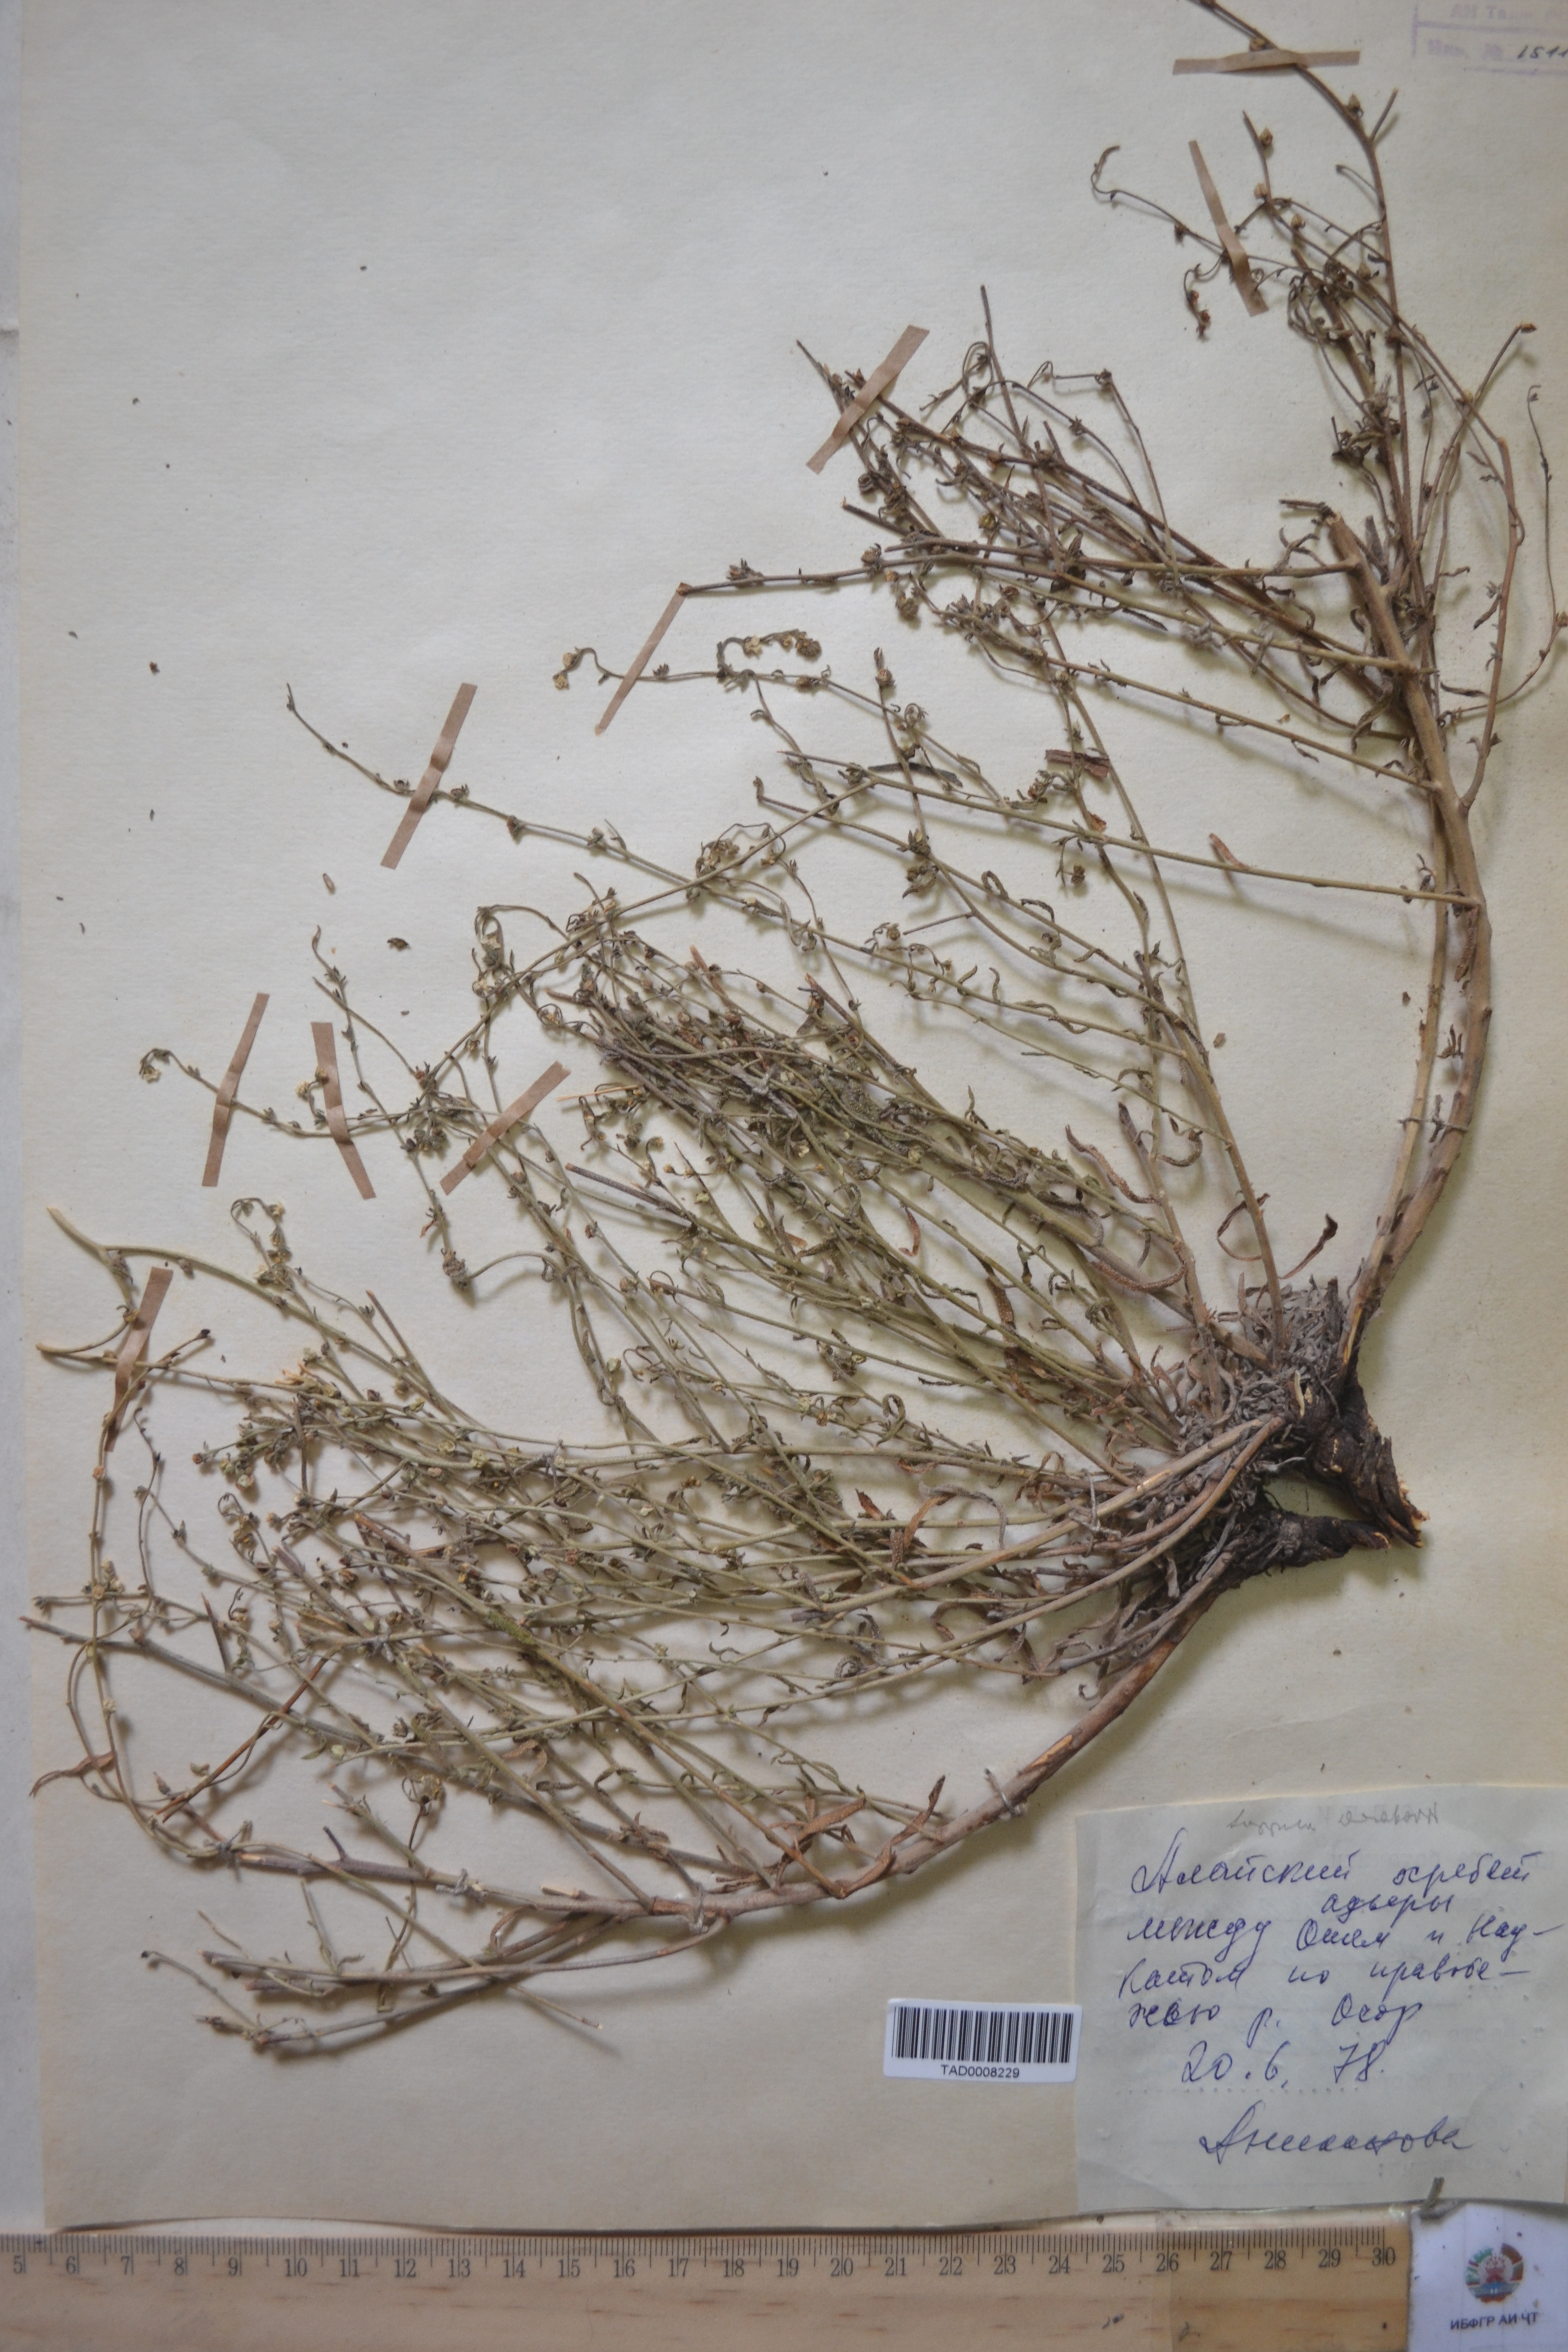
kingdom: Plantae
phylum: Tracheophyta
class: Magnoliopsida
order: Boraginales
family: Boraginaceae
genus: Rochelia
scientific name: Rochelia drobovii
